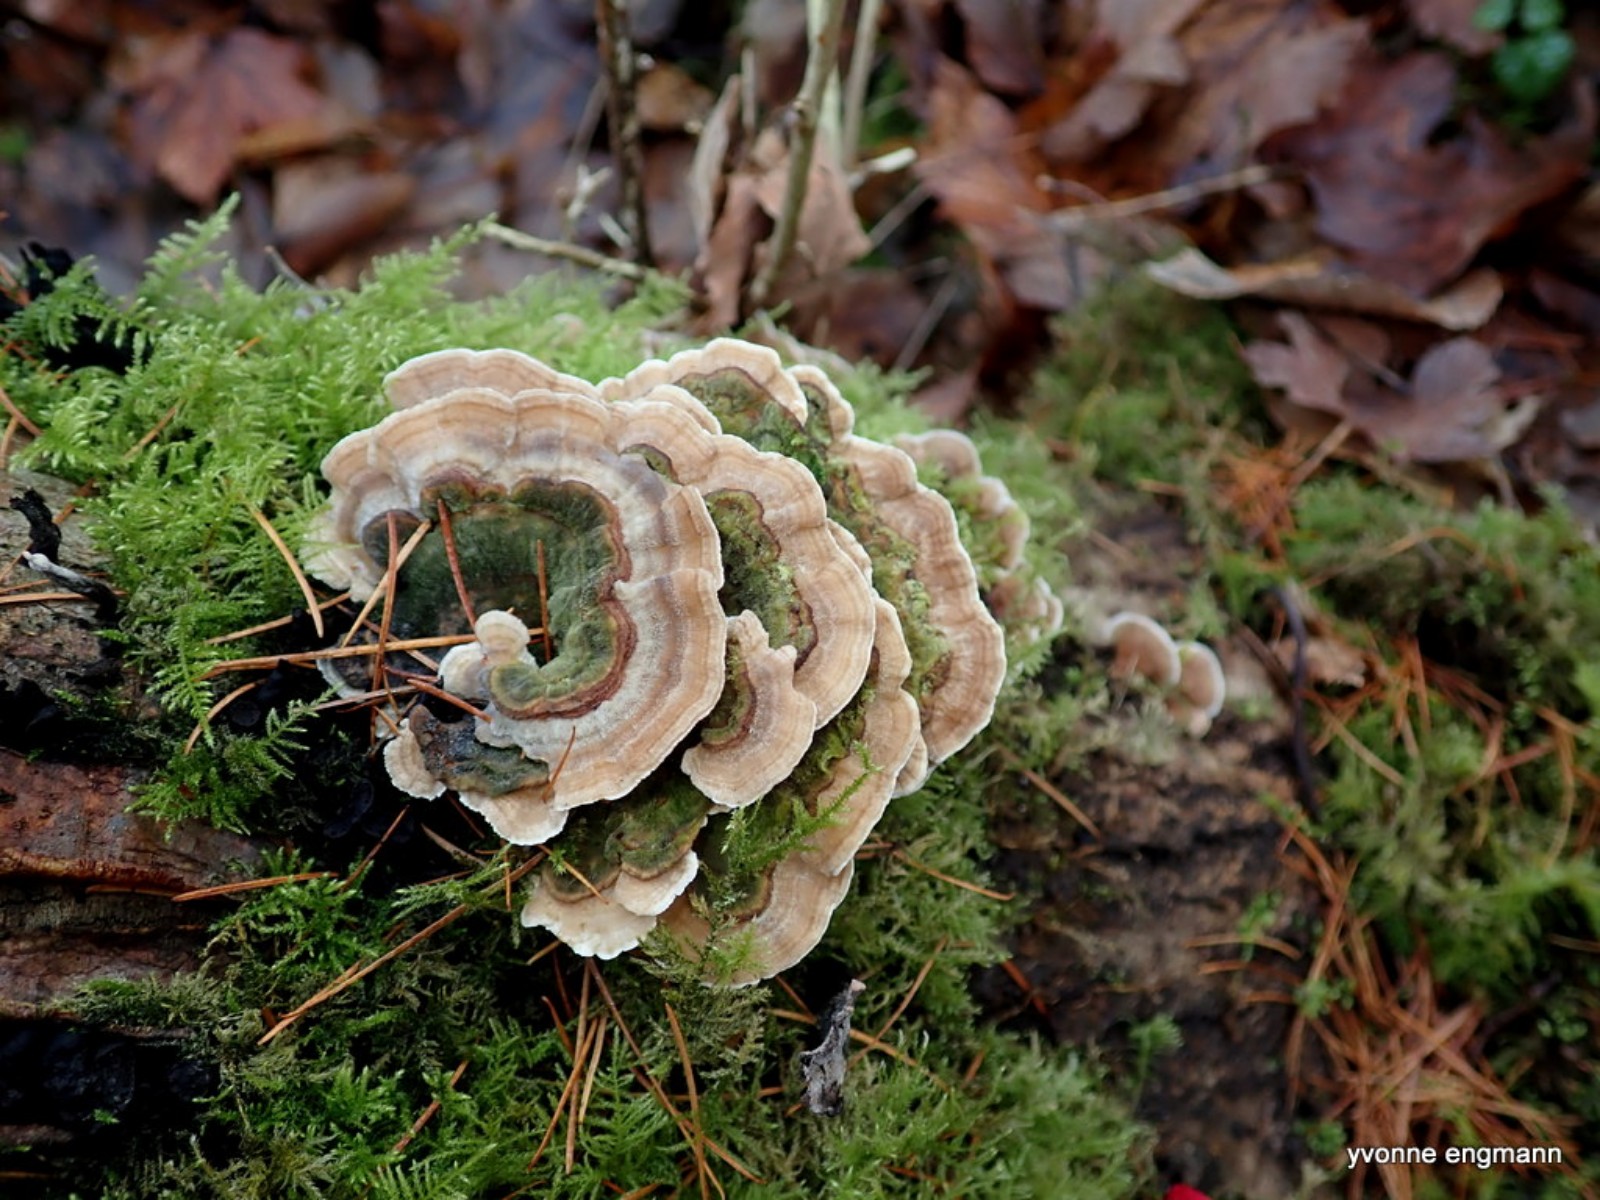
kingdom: Fungi
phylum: Basidiomycota
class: Agaricomycetes
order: Polyporales
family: Polyporaceae
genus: Trametes
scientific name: Trametes versicolor
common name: broget læderporesvamp
